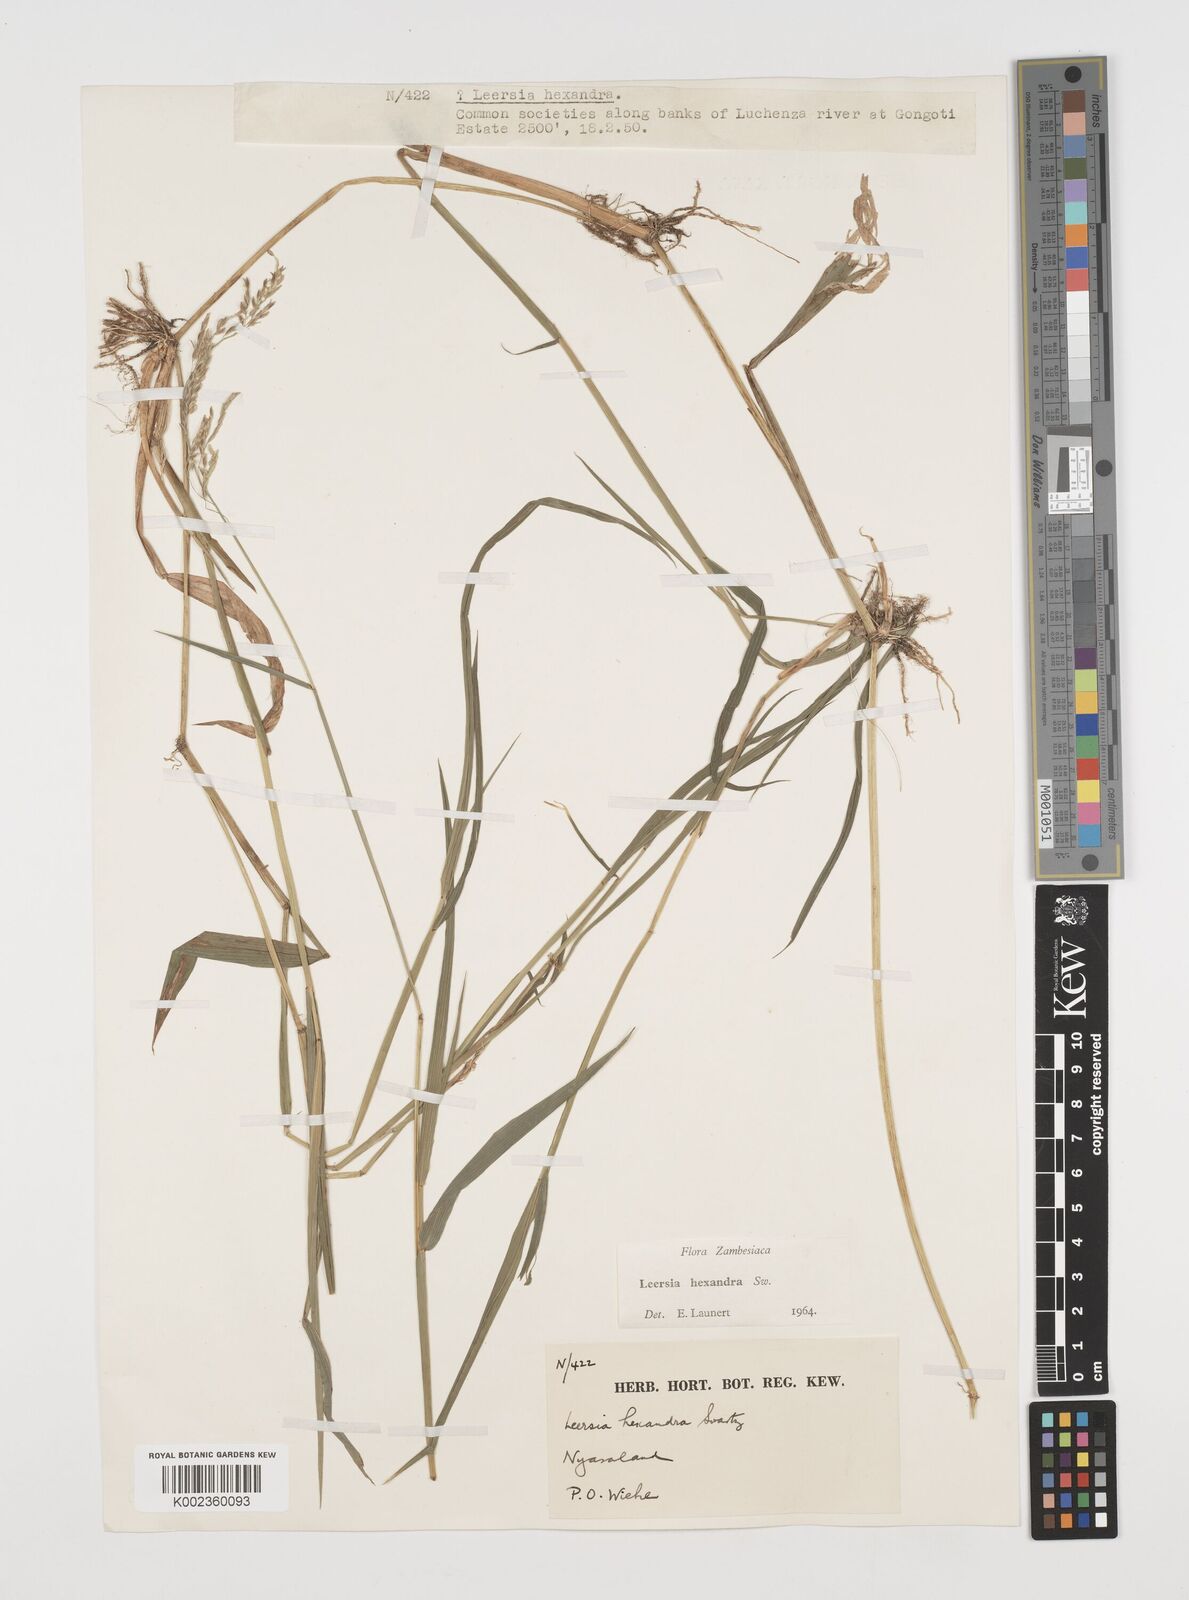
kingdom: Plantae
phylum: Tracheophyta
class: Liliopsida
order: Poales
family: Poaceae
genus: Leersia
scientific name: Leersia hexandra
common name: Southern cut grass
